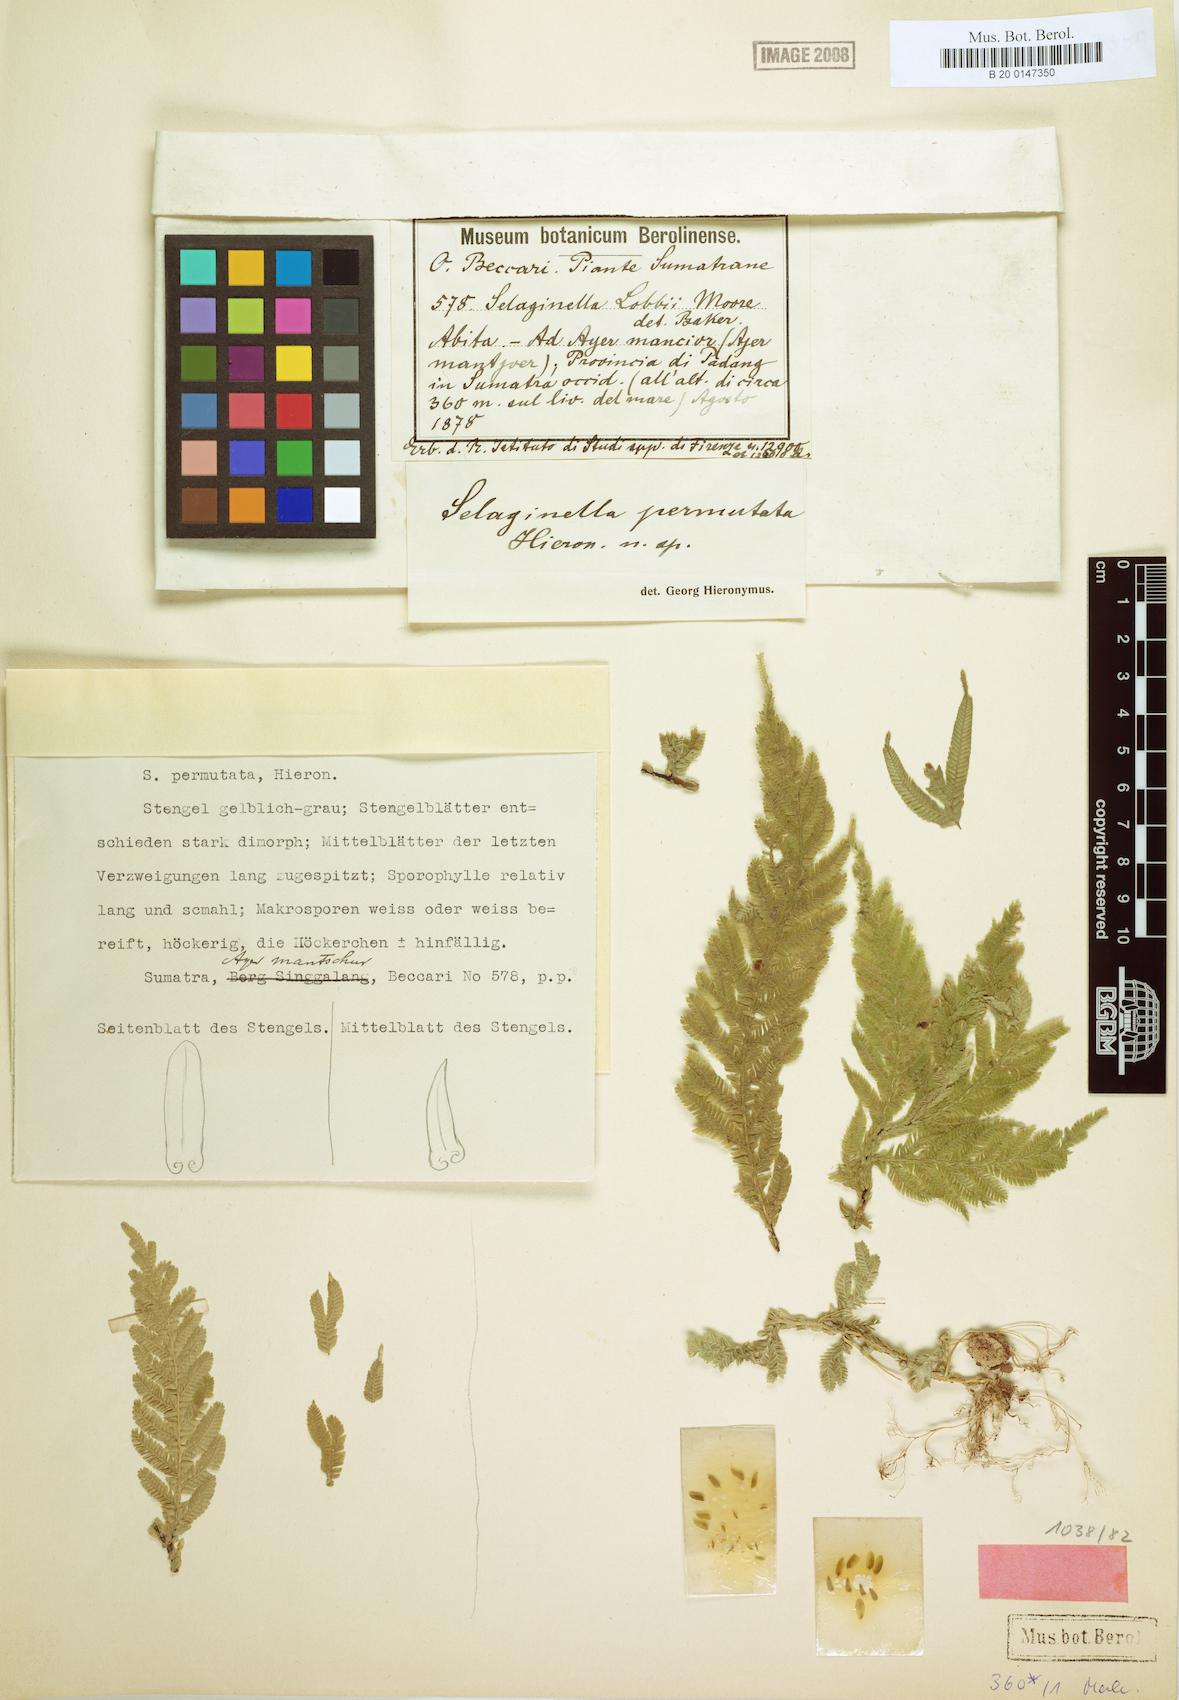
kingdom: Plantae
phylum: Tracheophyta
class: Lycopodiopsida
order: Selaginellales
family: Selaginellaceae
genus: Selaginella
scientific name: Selaginella permutata
